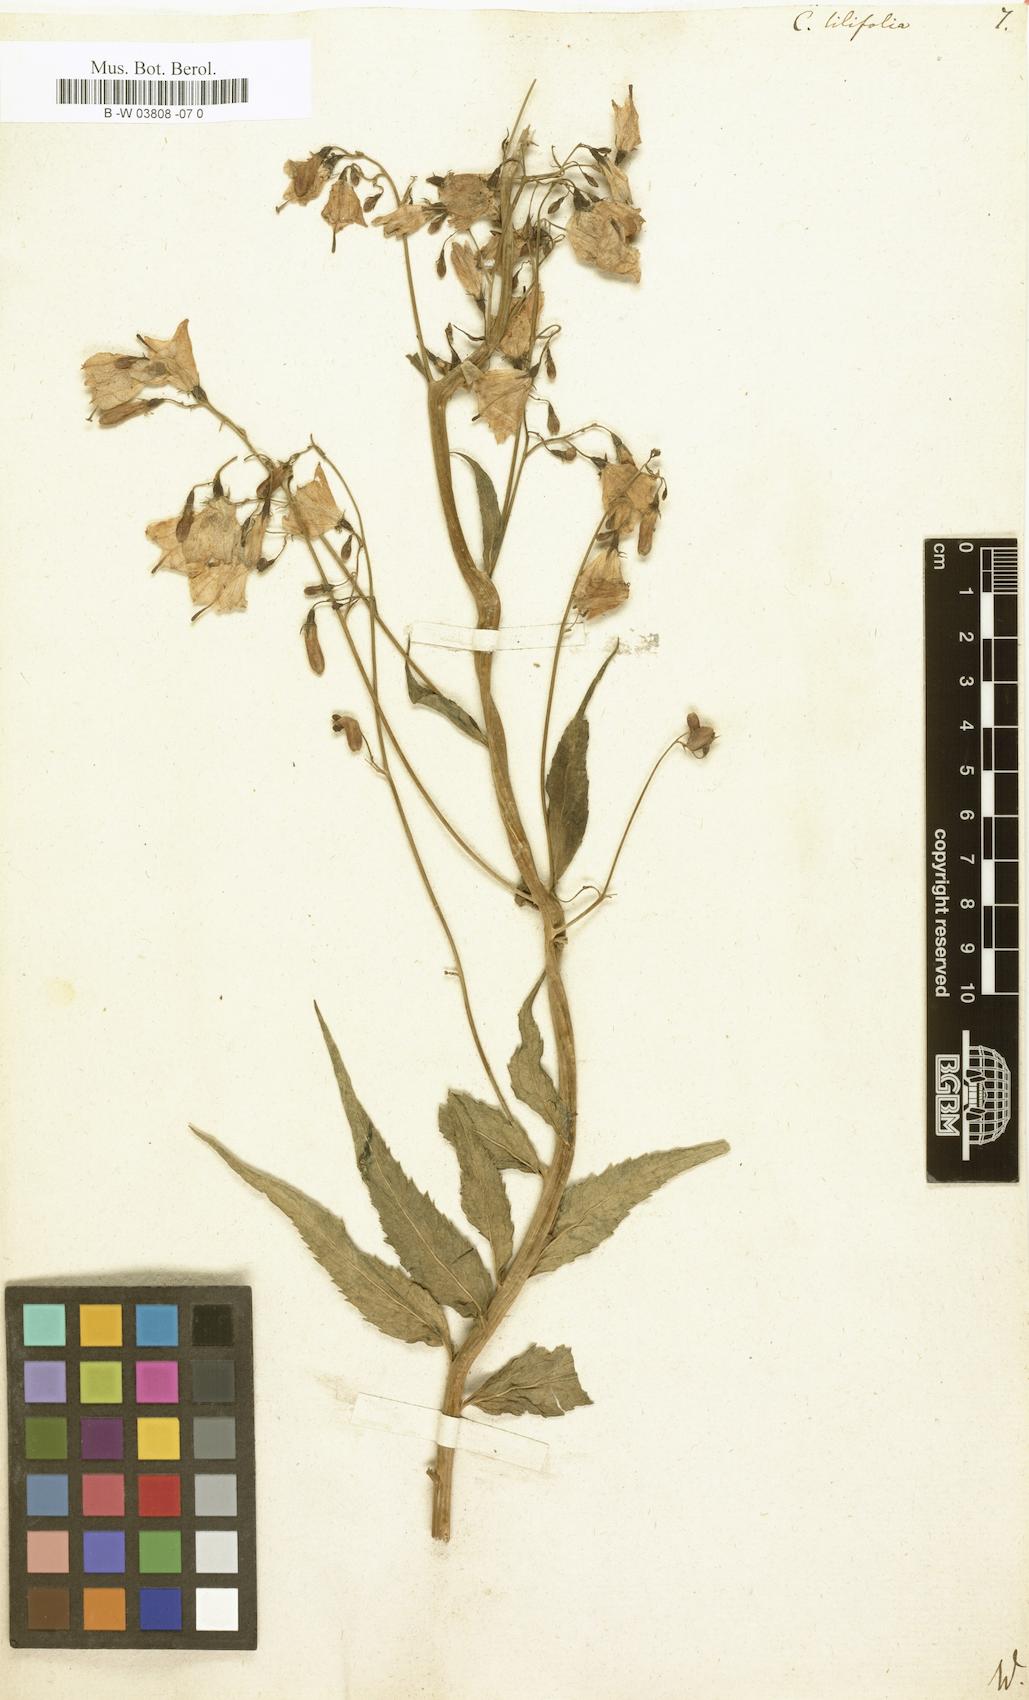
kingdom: Plantae
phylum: Tracheophyta
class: Magnoliopsida
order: Asterales
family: Campanulaceae
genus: Campanula
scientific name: Campanula lilifolia
